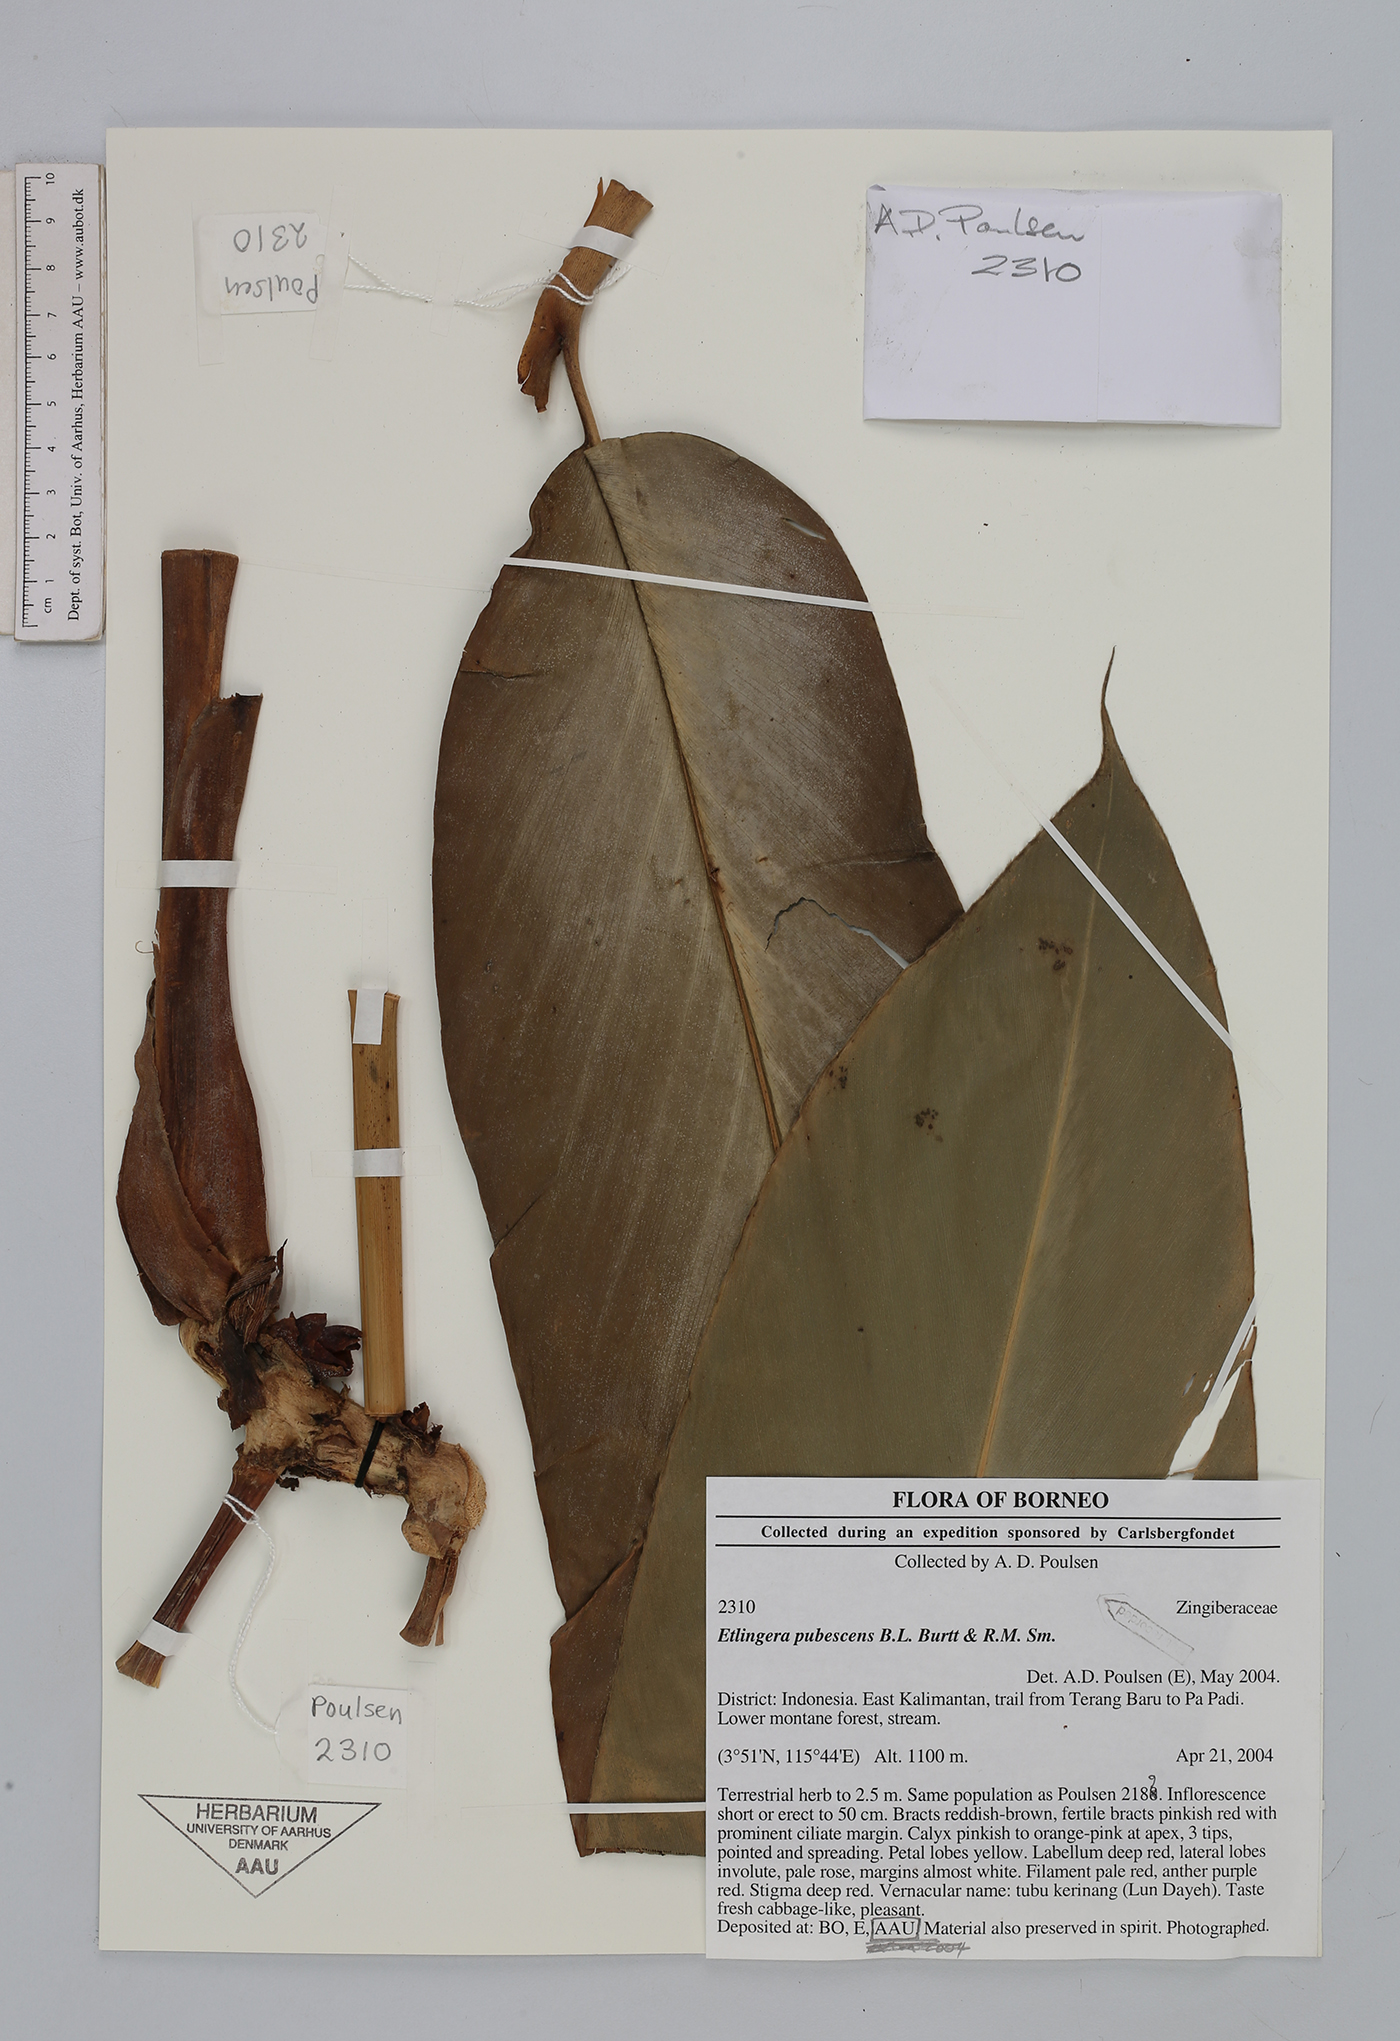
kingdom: Plantae
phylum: Tracheophyta
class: Liliopsida
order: Zingiberales
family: Zingiberaceae
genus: Etlingera
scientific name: Etlingera pubescens
